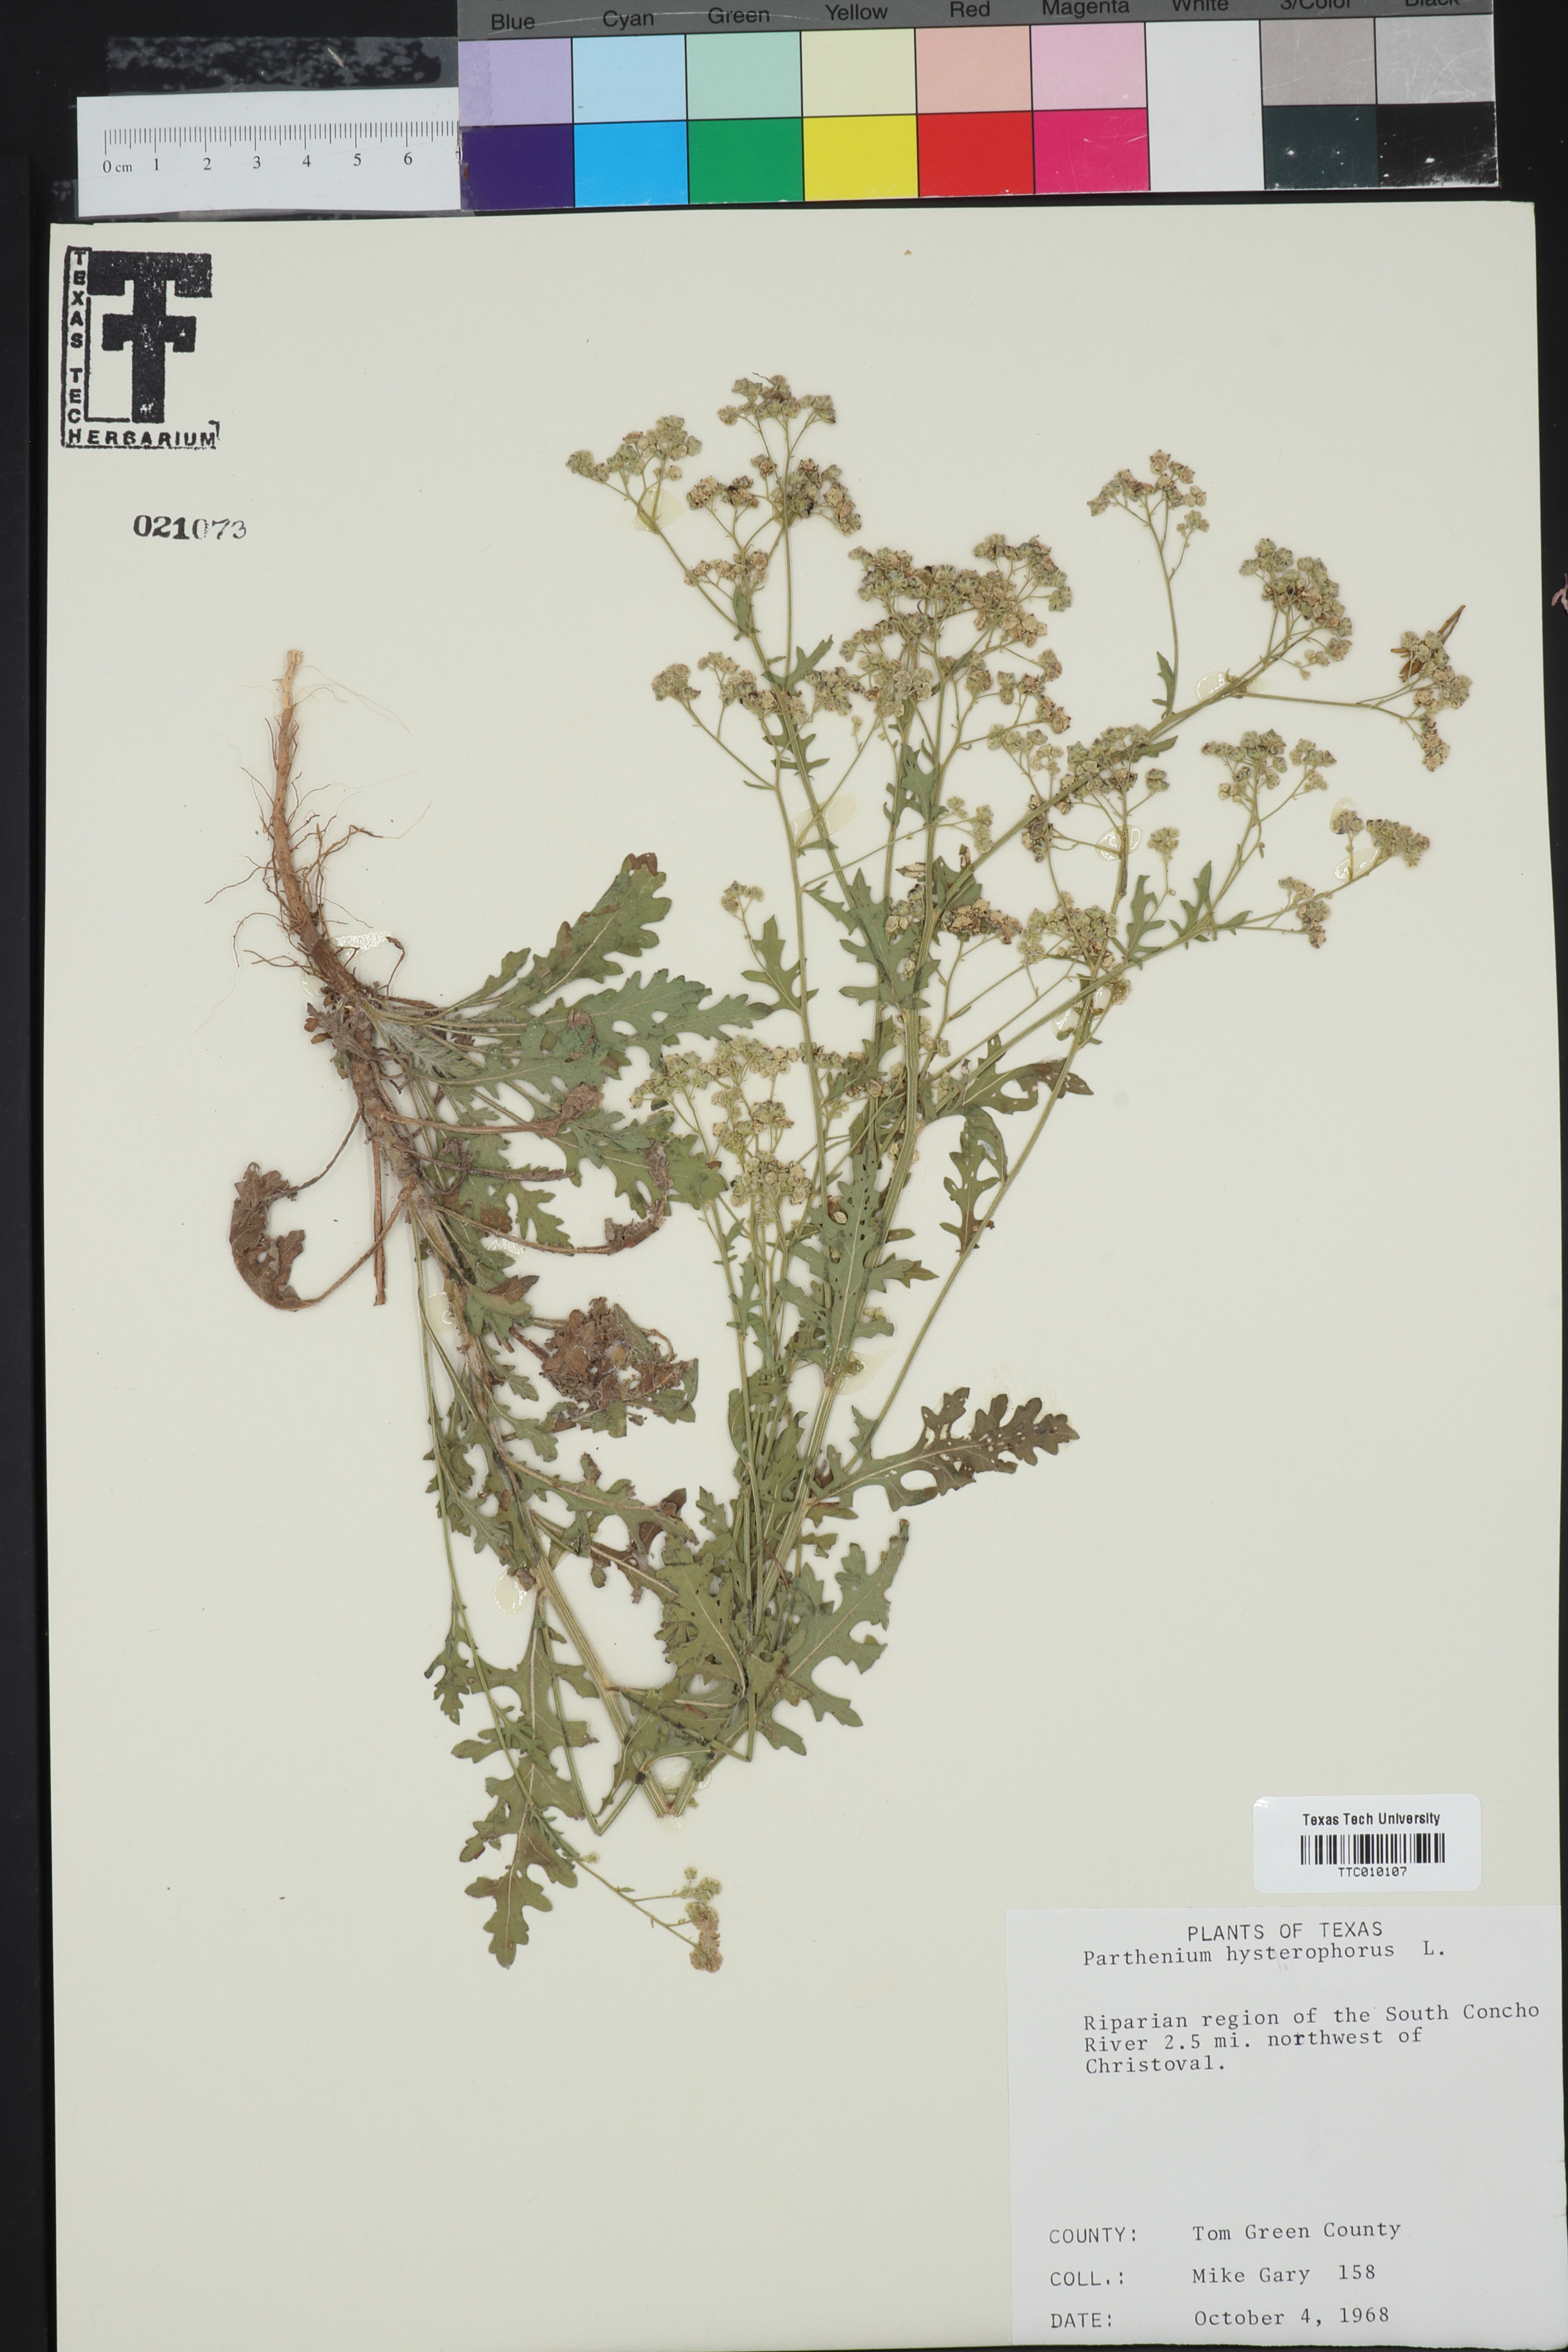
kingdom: Plantae
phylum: Tracheophyta
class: Magnoliopsida
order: Asterales
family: Asteraceae
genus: Parthenium
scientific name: Parthenium hysterophorus
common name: Santa maria feverfew
